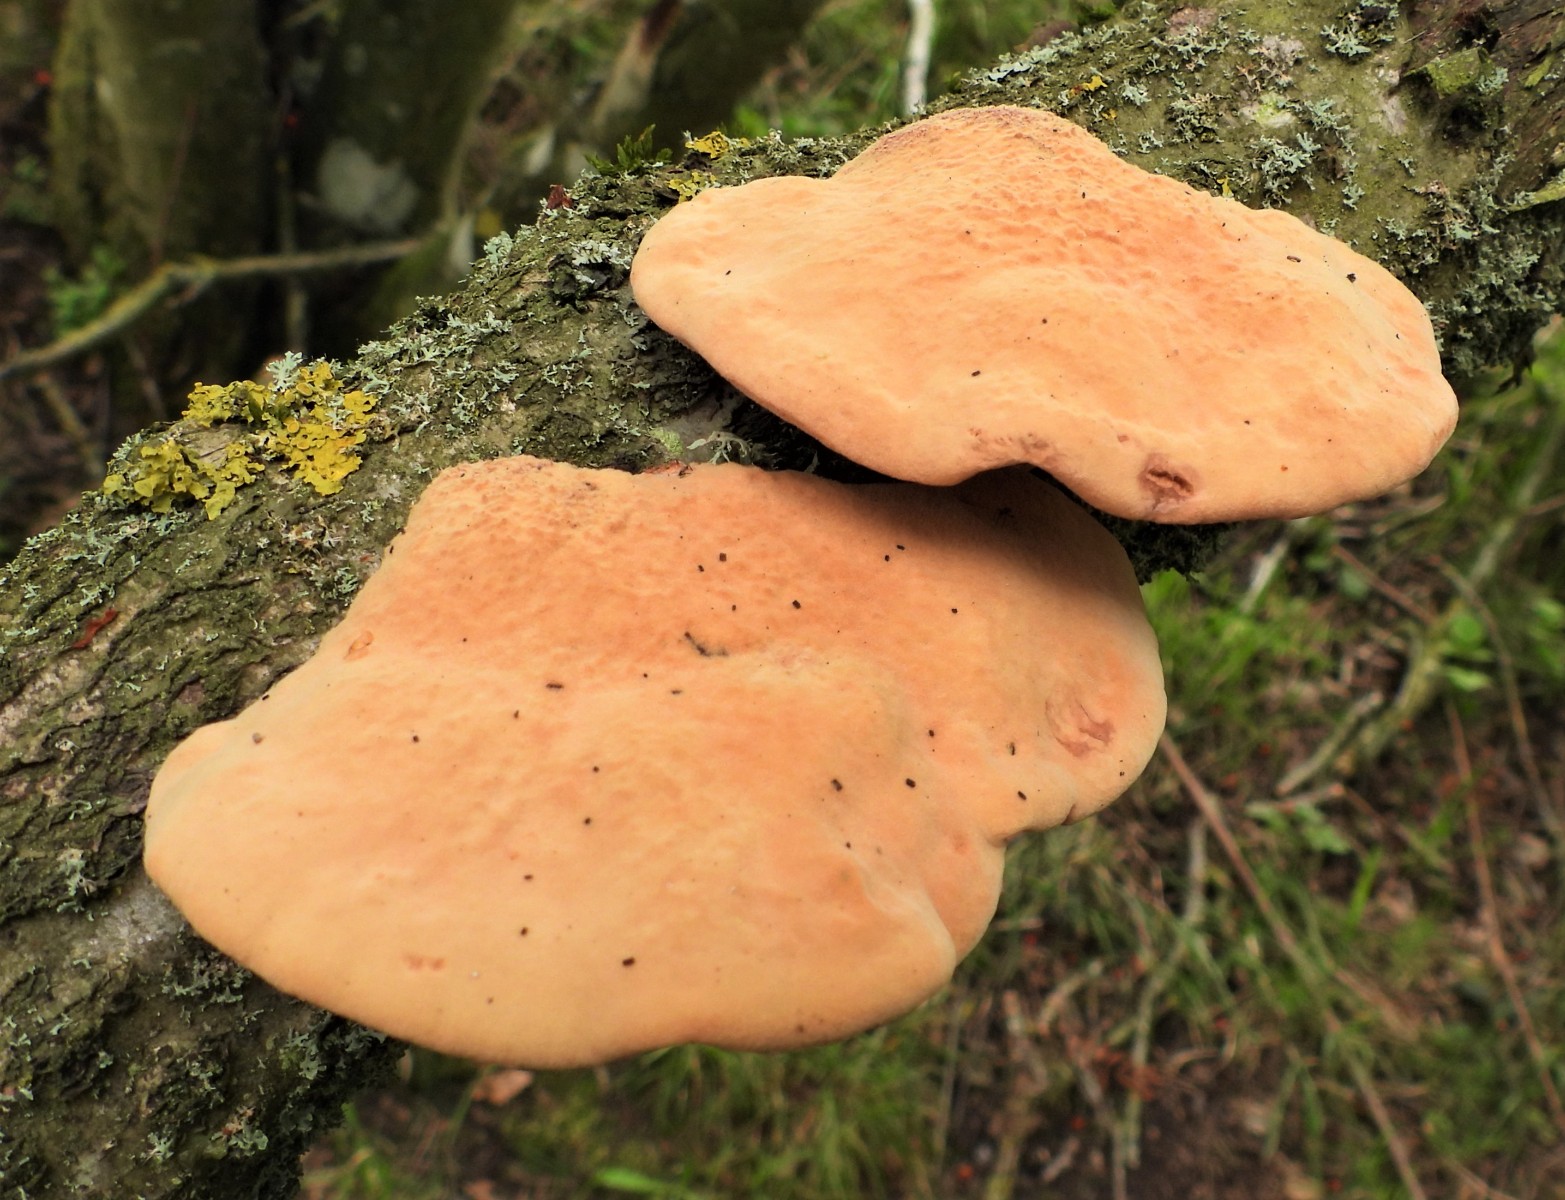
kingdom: Fungi
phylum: Basidiomycota
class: Agaricomycetes
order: Polyporales
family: Phanerochaetaceae
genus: Hapalopilus
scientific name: Hapalopilus rutilans
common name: rødlig okkerporesvamp
